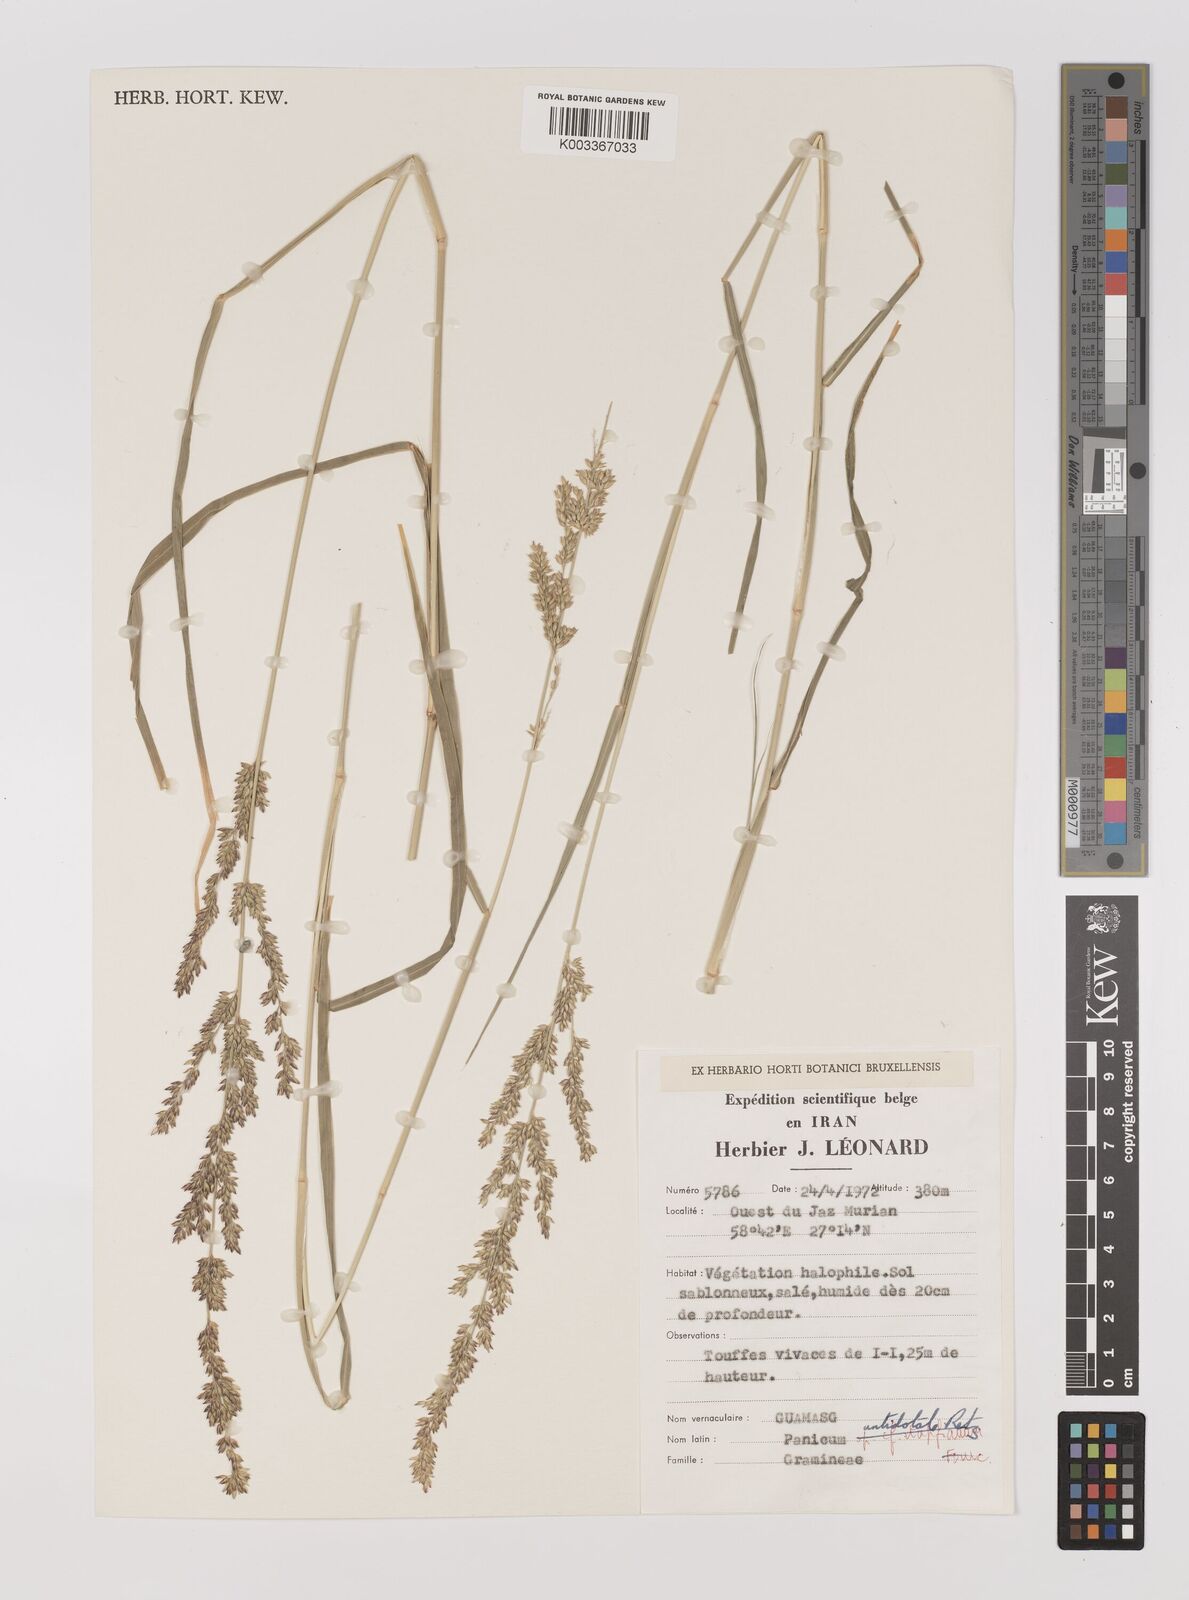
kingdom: Plantae
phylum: Tracheophyta
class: Liliopsida
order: Poales
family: Poaceae
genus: Panicum
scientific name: Panicum antidotale
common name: Blue panicum
